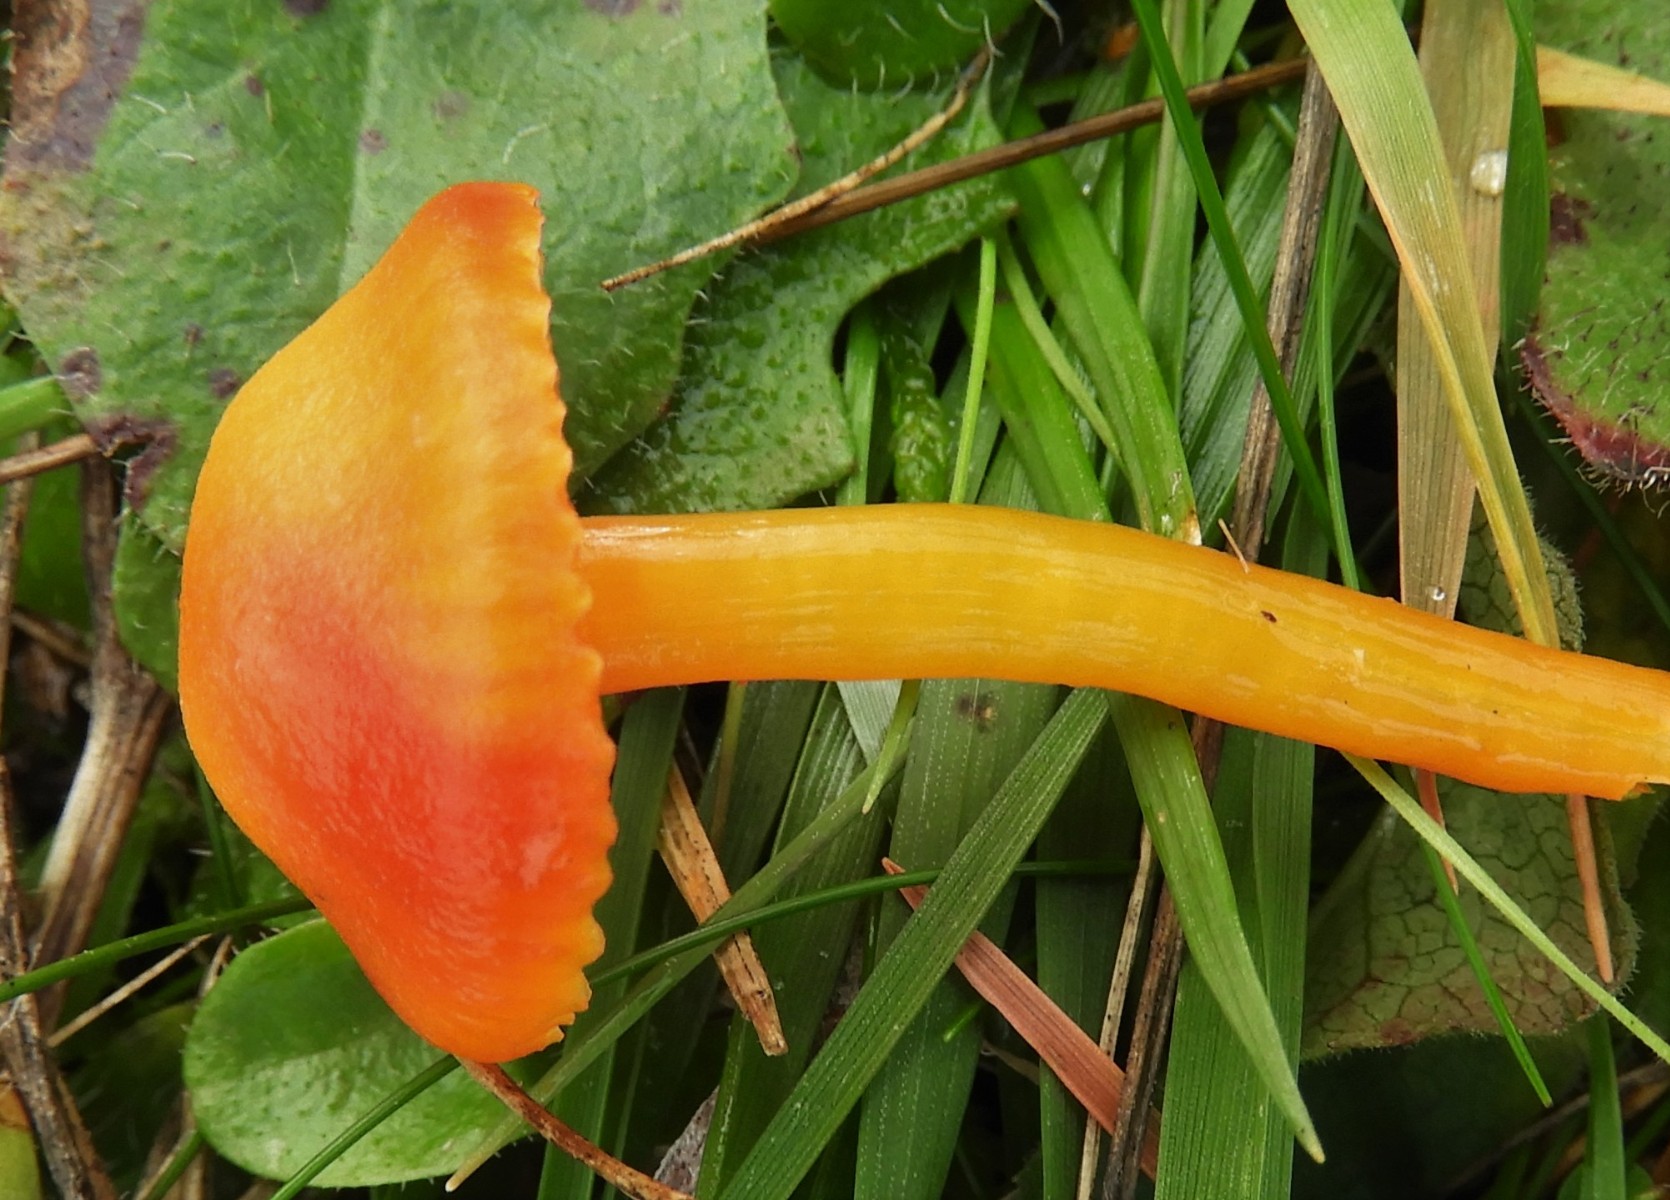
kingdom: Fungi
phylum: Basidiomycota
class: Agaricomycetes
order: Agaricales
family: Hygrophoraceae
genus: Hygrocybe
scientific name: Hygrocybe miniata
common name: mønje-vokshat
